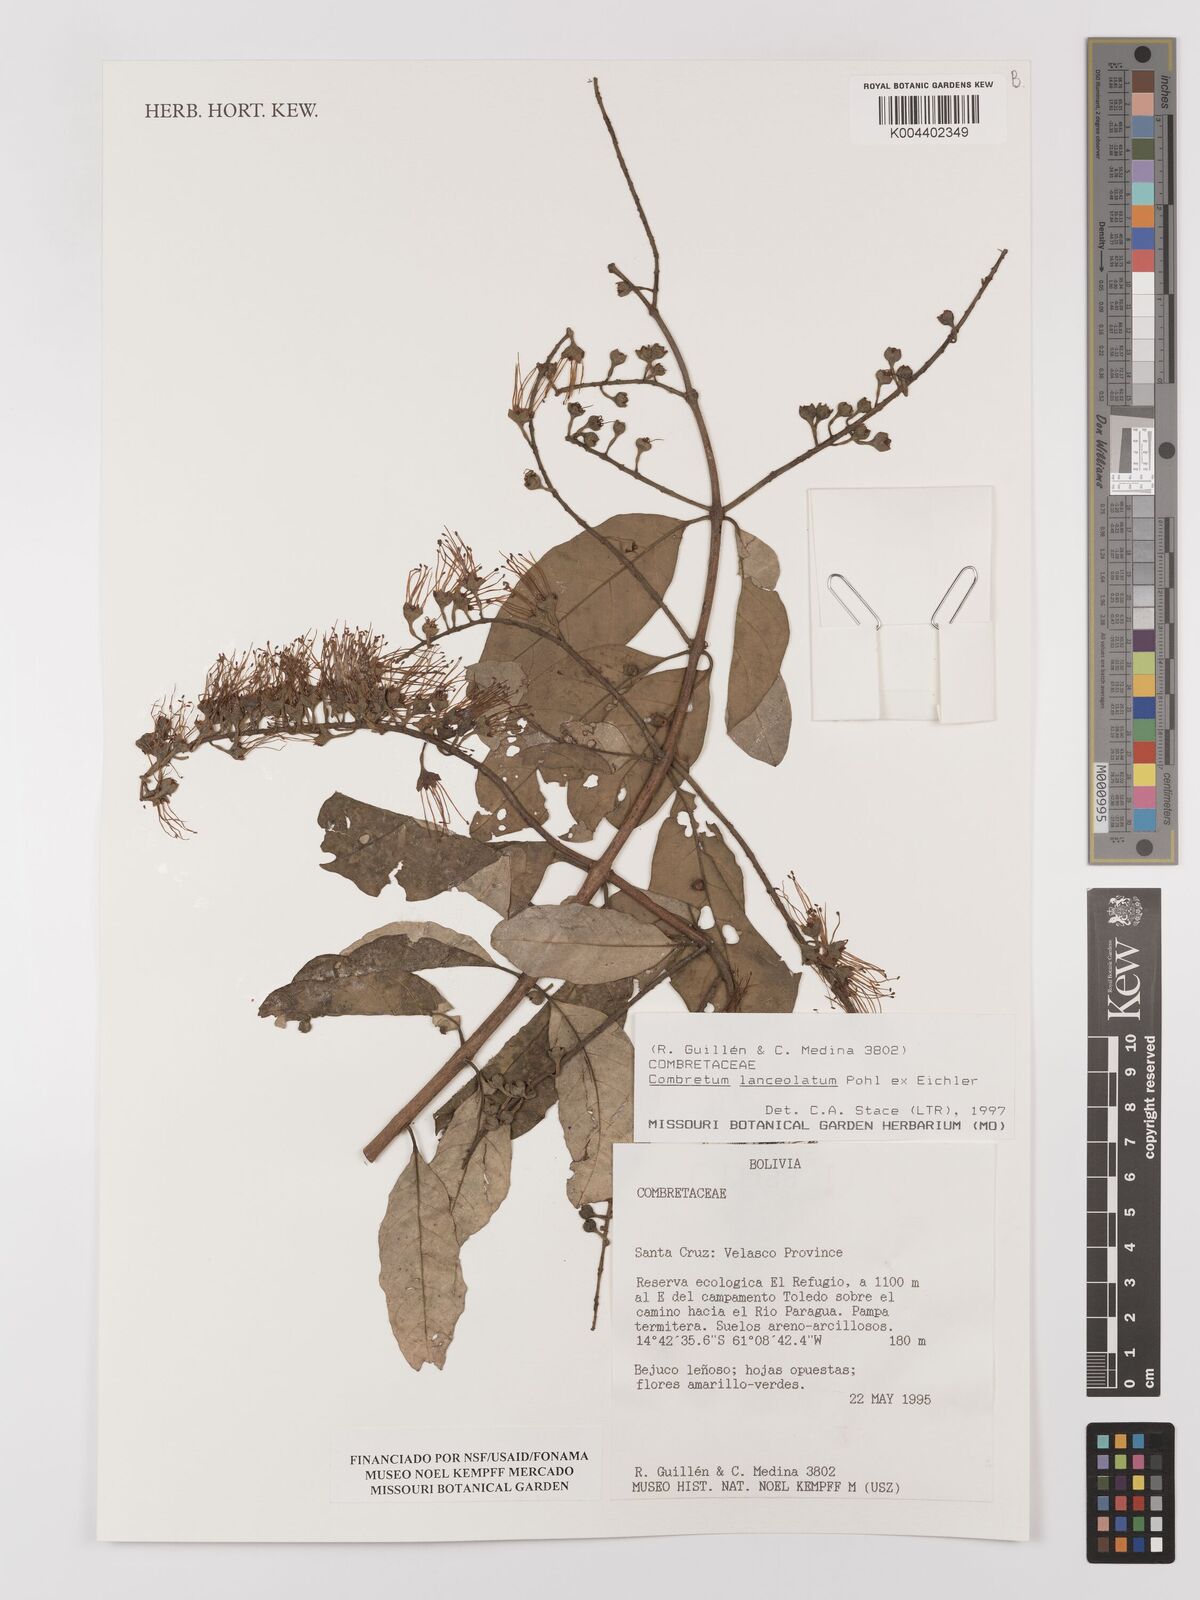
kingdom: Plantae
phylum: Tracheophyta
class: Magnoliopsida
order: Myrtales
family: Combretaceae
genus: Combretum
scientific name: Combretum lanceolatum
